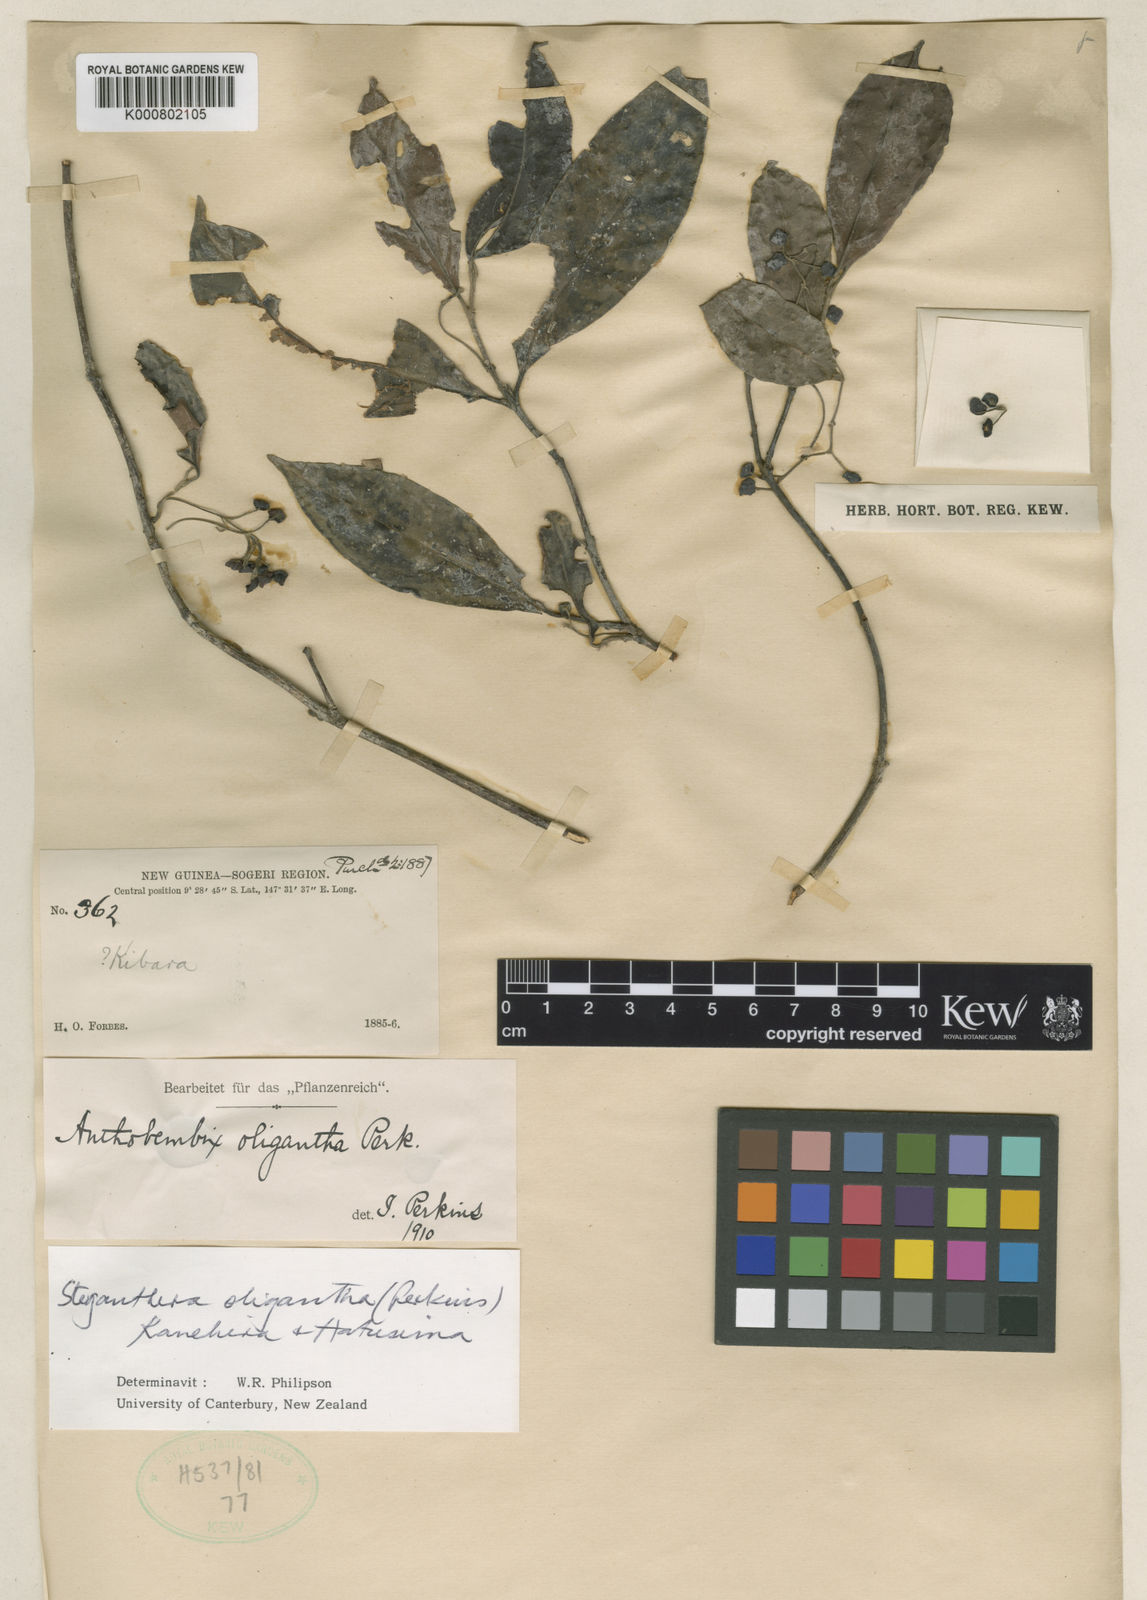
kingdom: Plantae
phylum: Tracheophyta
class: Magnoliopsida
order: Laurales
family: Monimiaceae
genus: Steganthera
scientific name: Steganthera oligantha
